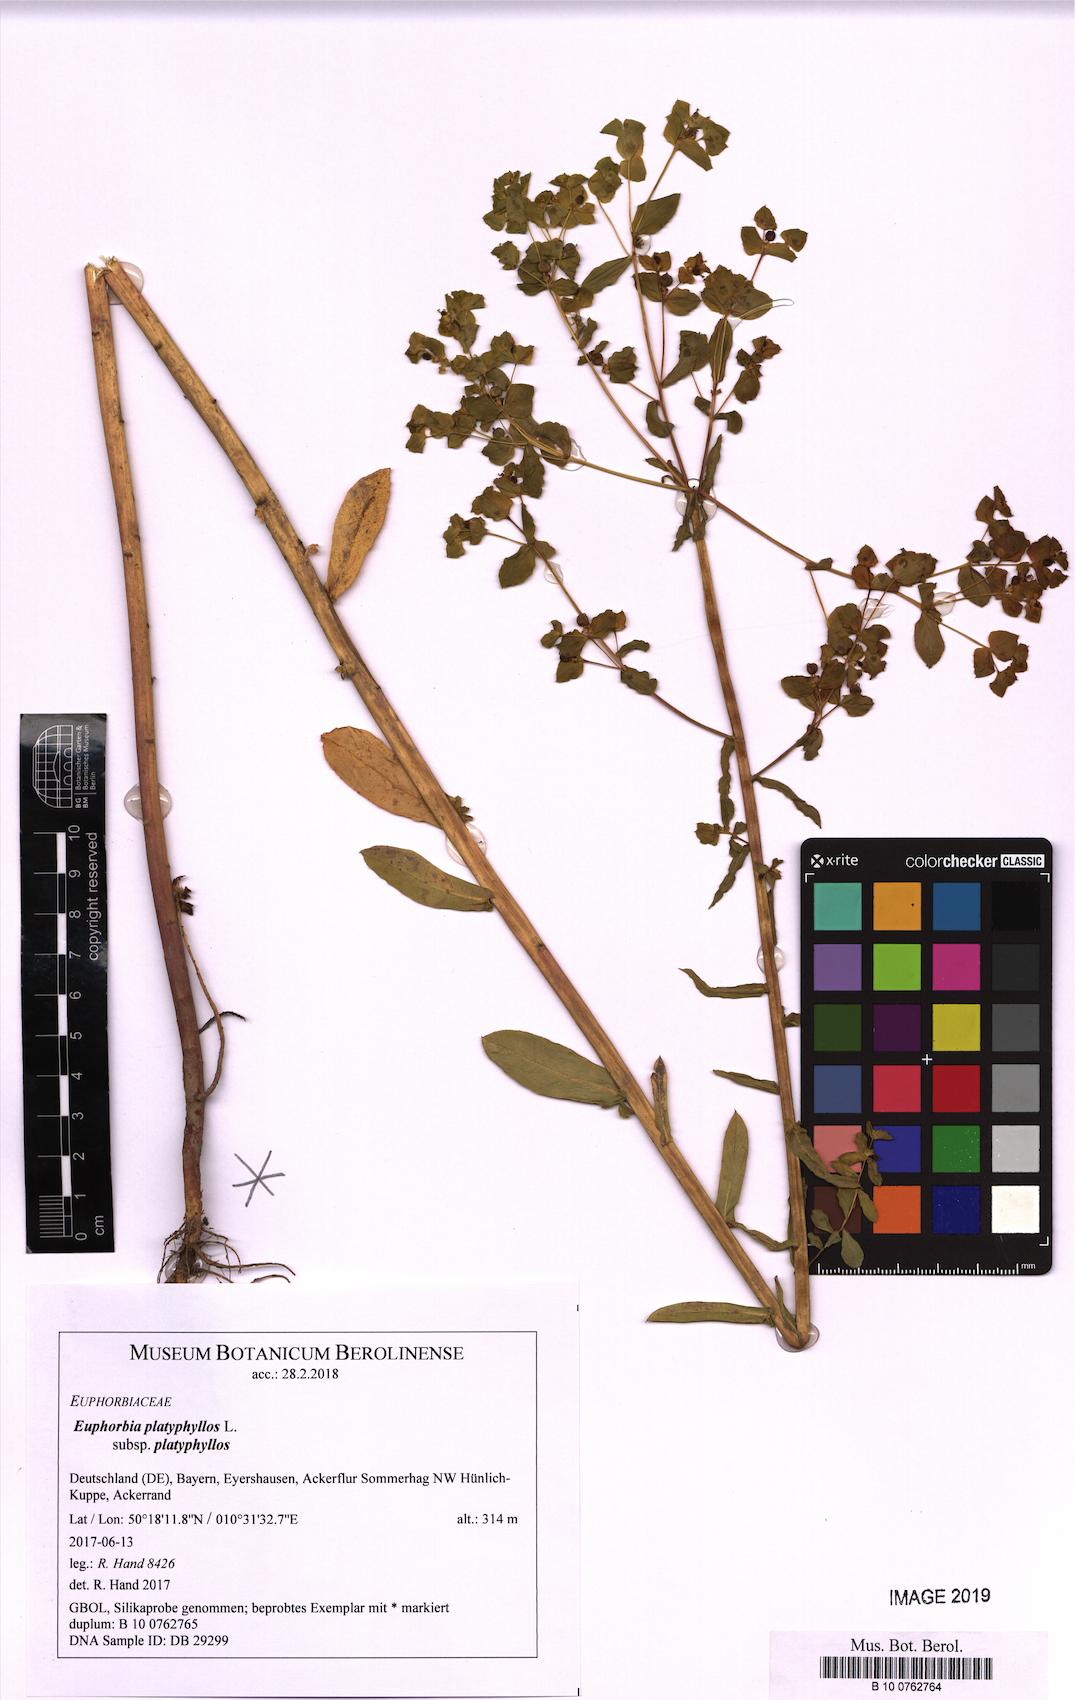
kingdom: Plantae
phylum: Tracheophyta
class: Magnoliopsida
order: Malpighiales
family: Euphorbiaceae
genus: Euphorbia
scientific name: Euphorbia platyphyllos
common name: Broad-leaved spurge
